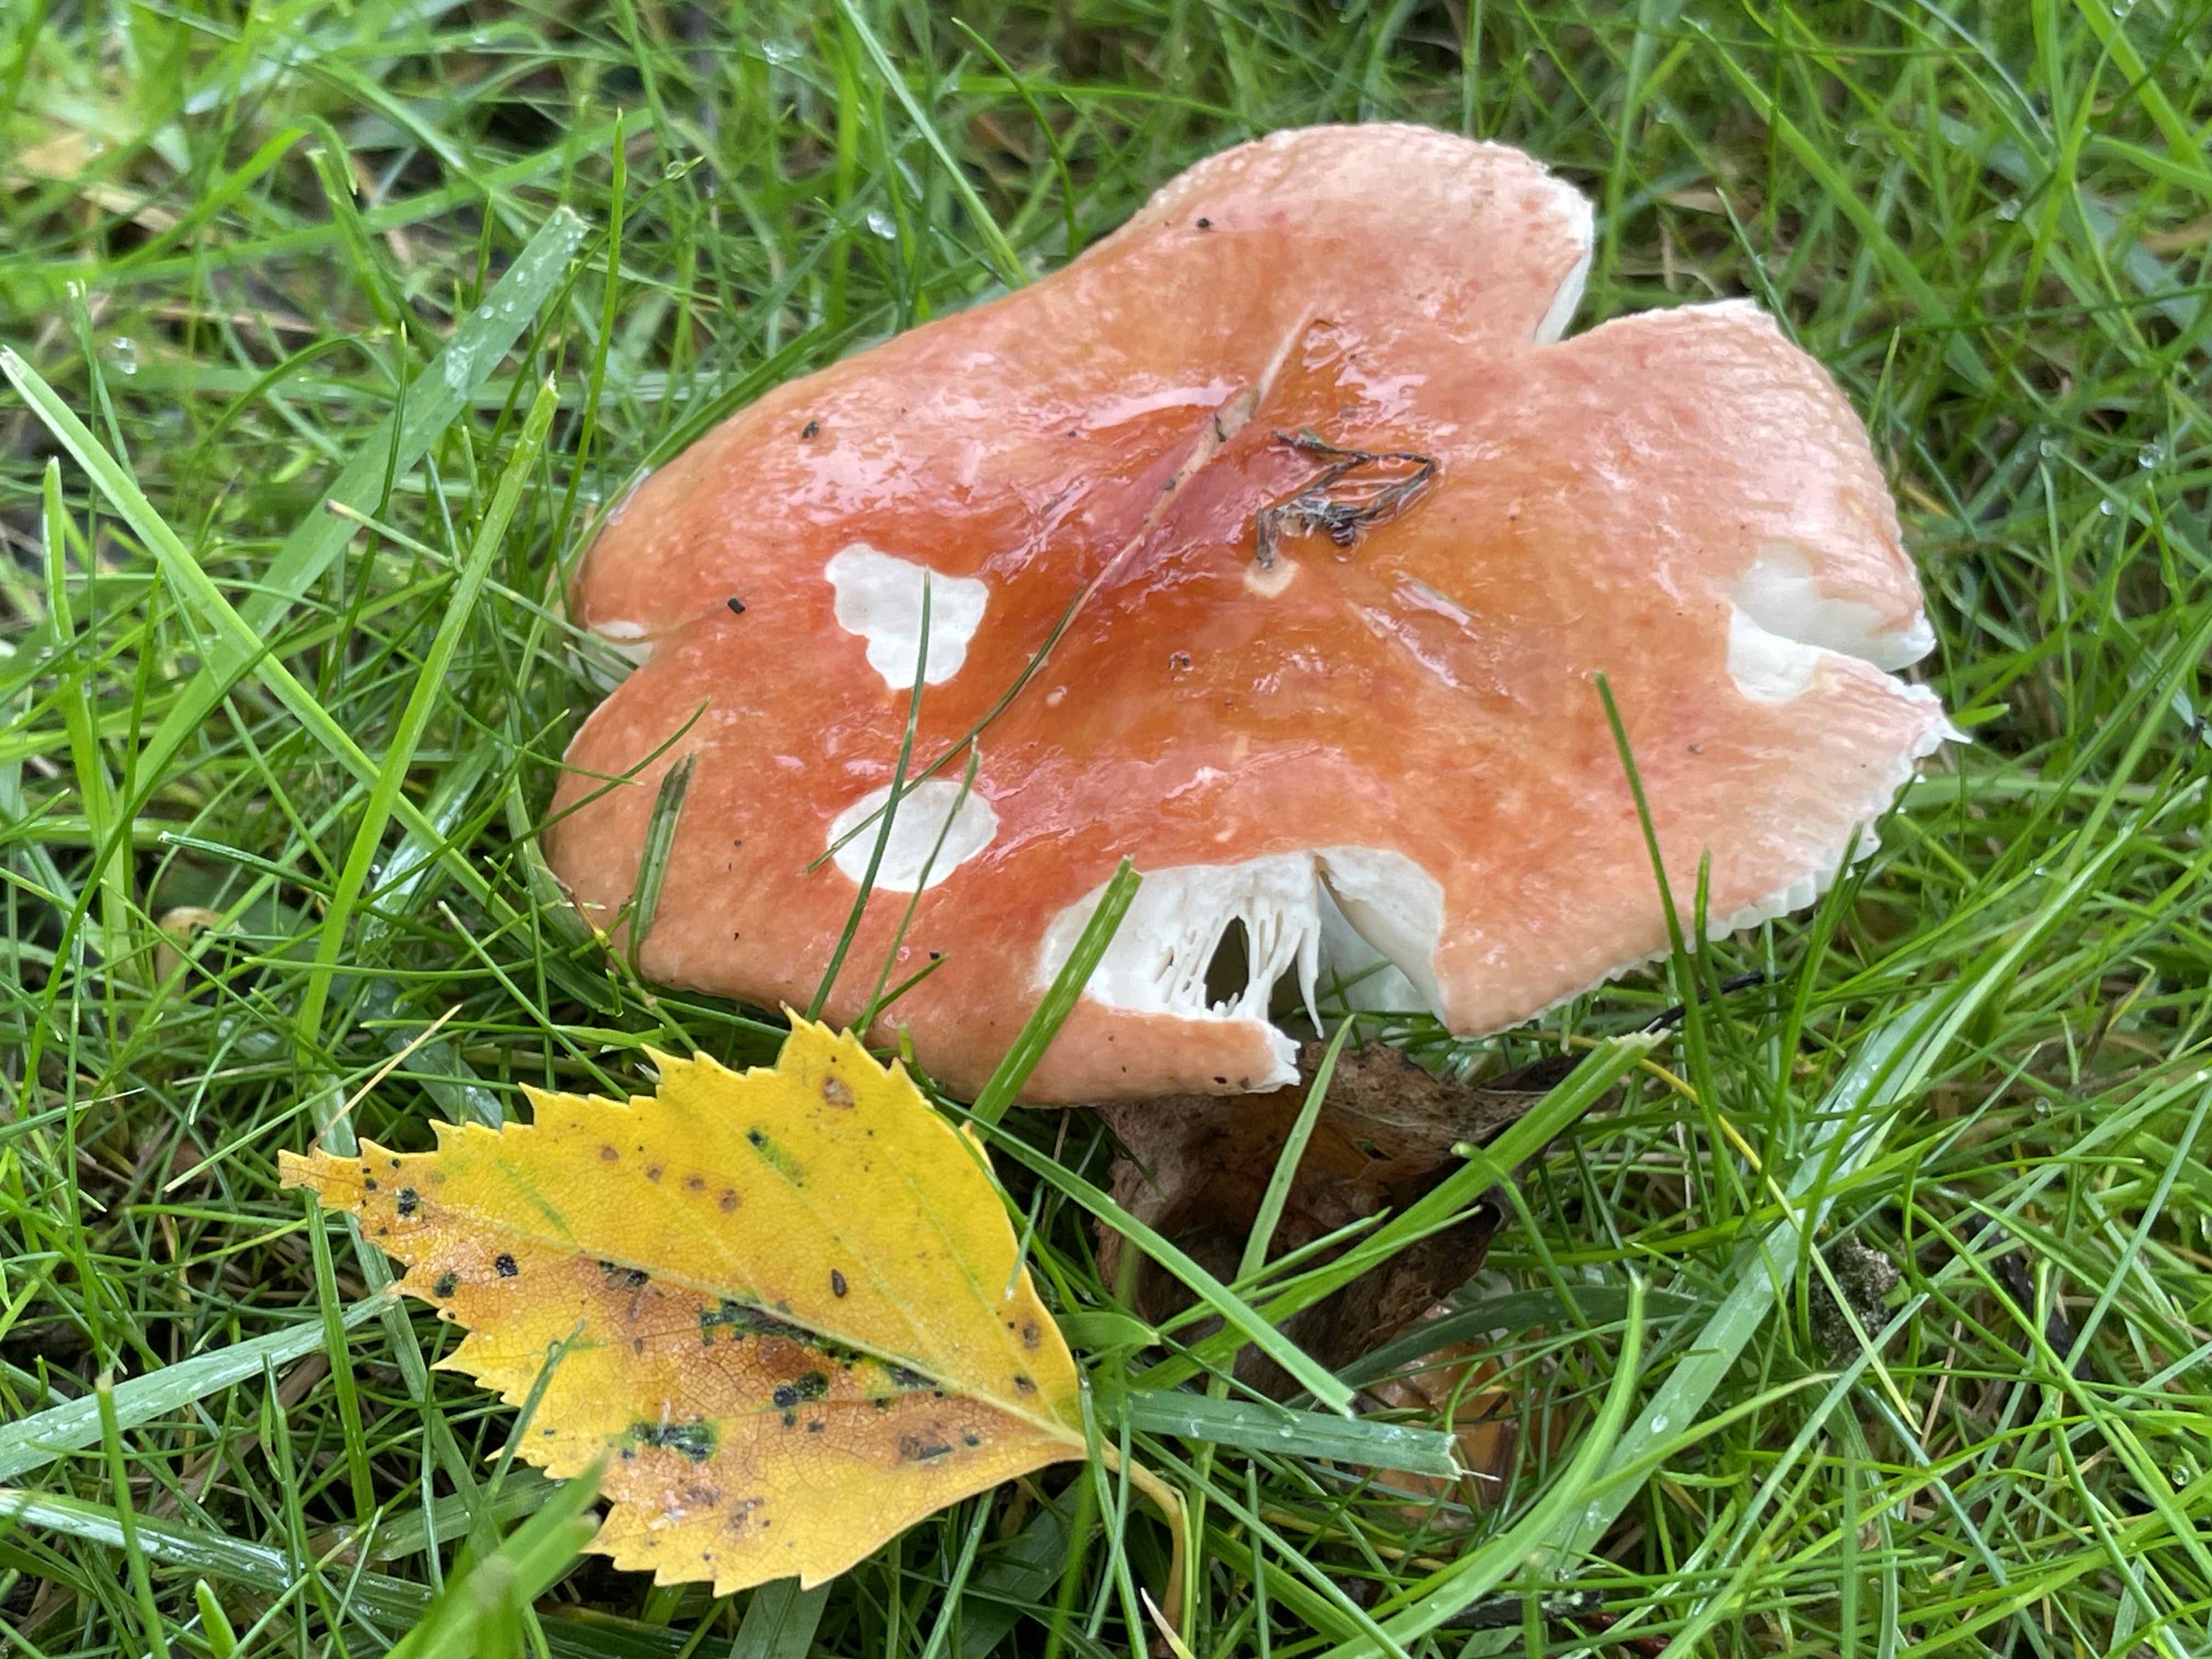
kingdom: Fungi
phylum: Basidiomycota
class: Agaricomycetes
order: Russulales
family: Russulaceae
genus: Russula
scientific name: Russula velenovskyi
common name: orangerød skørhat
